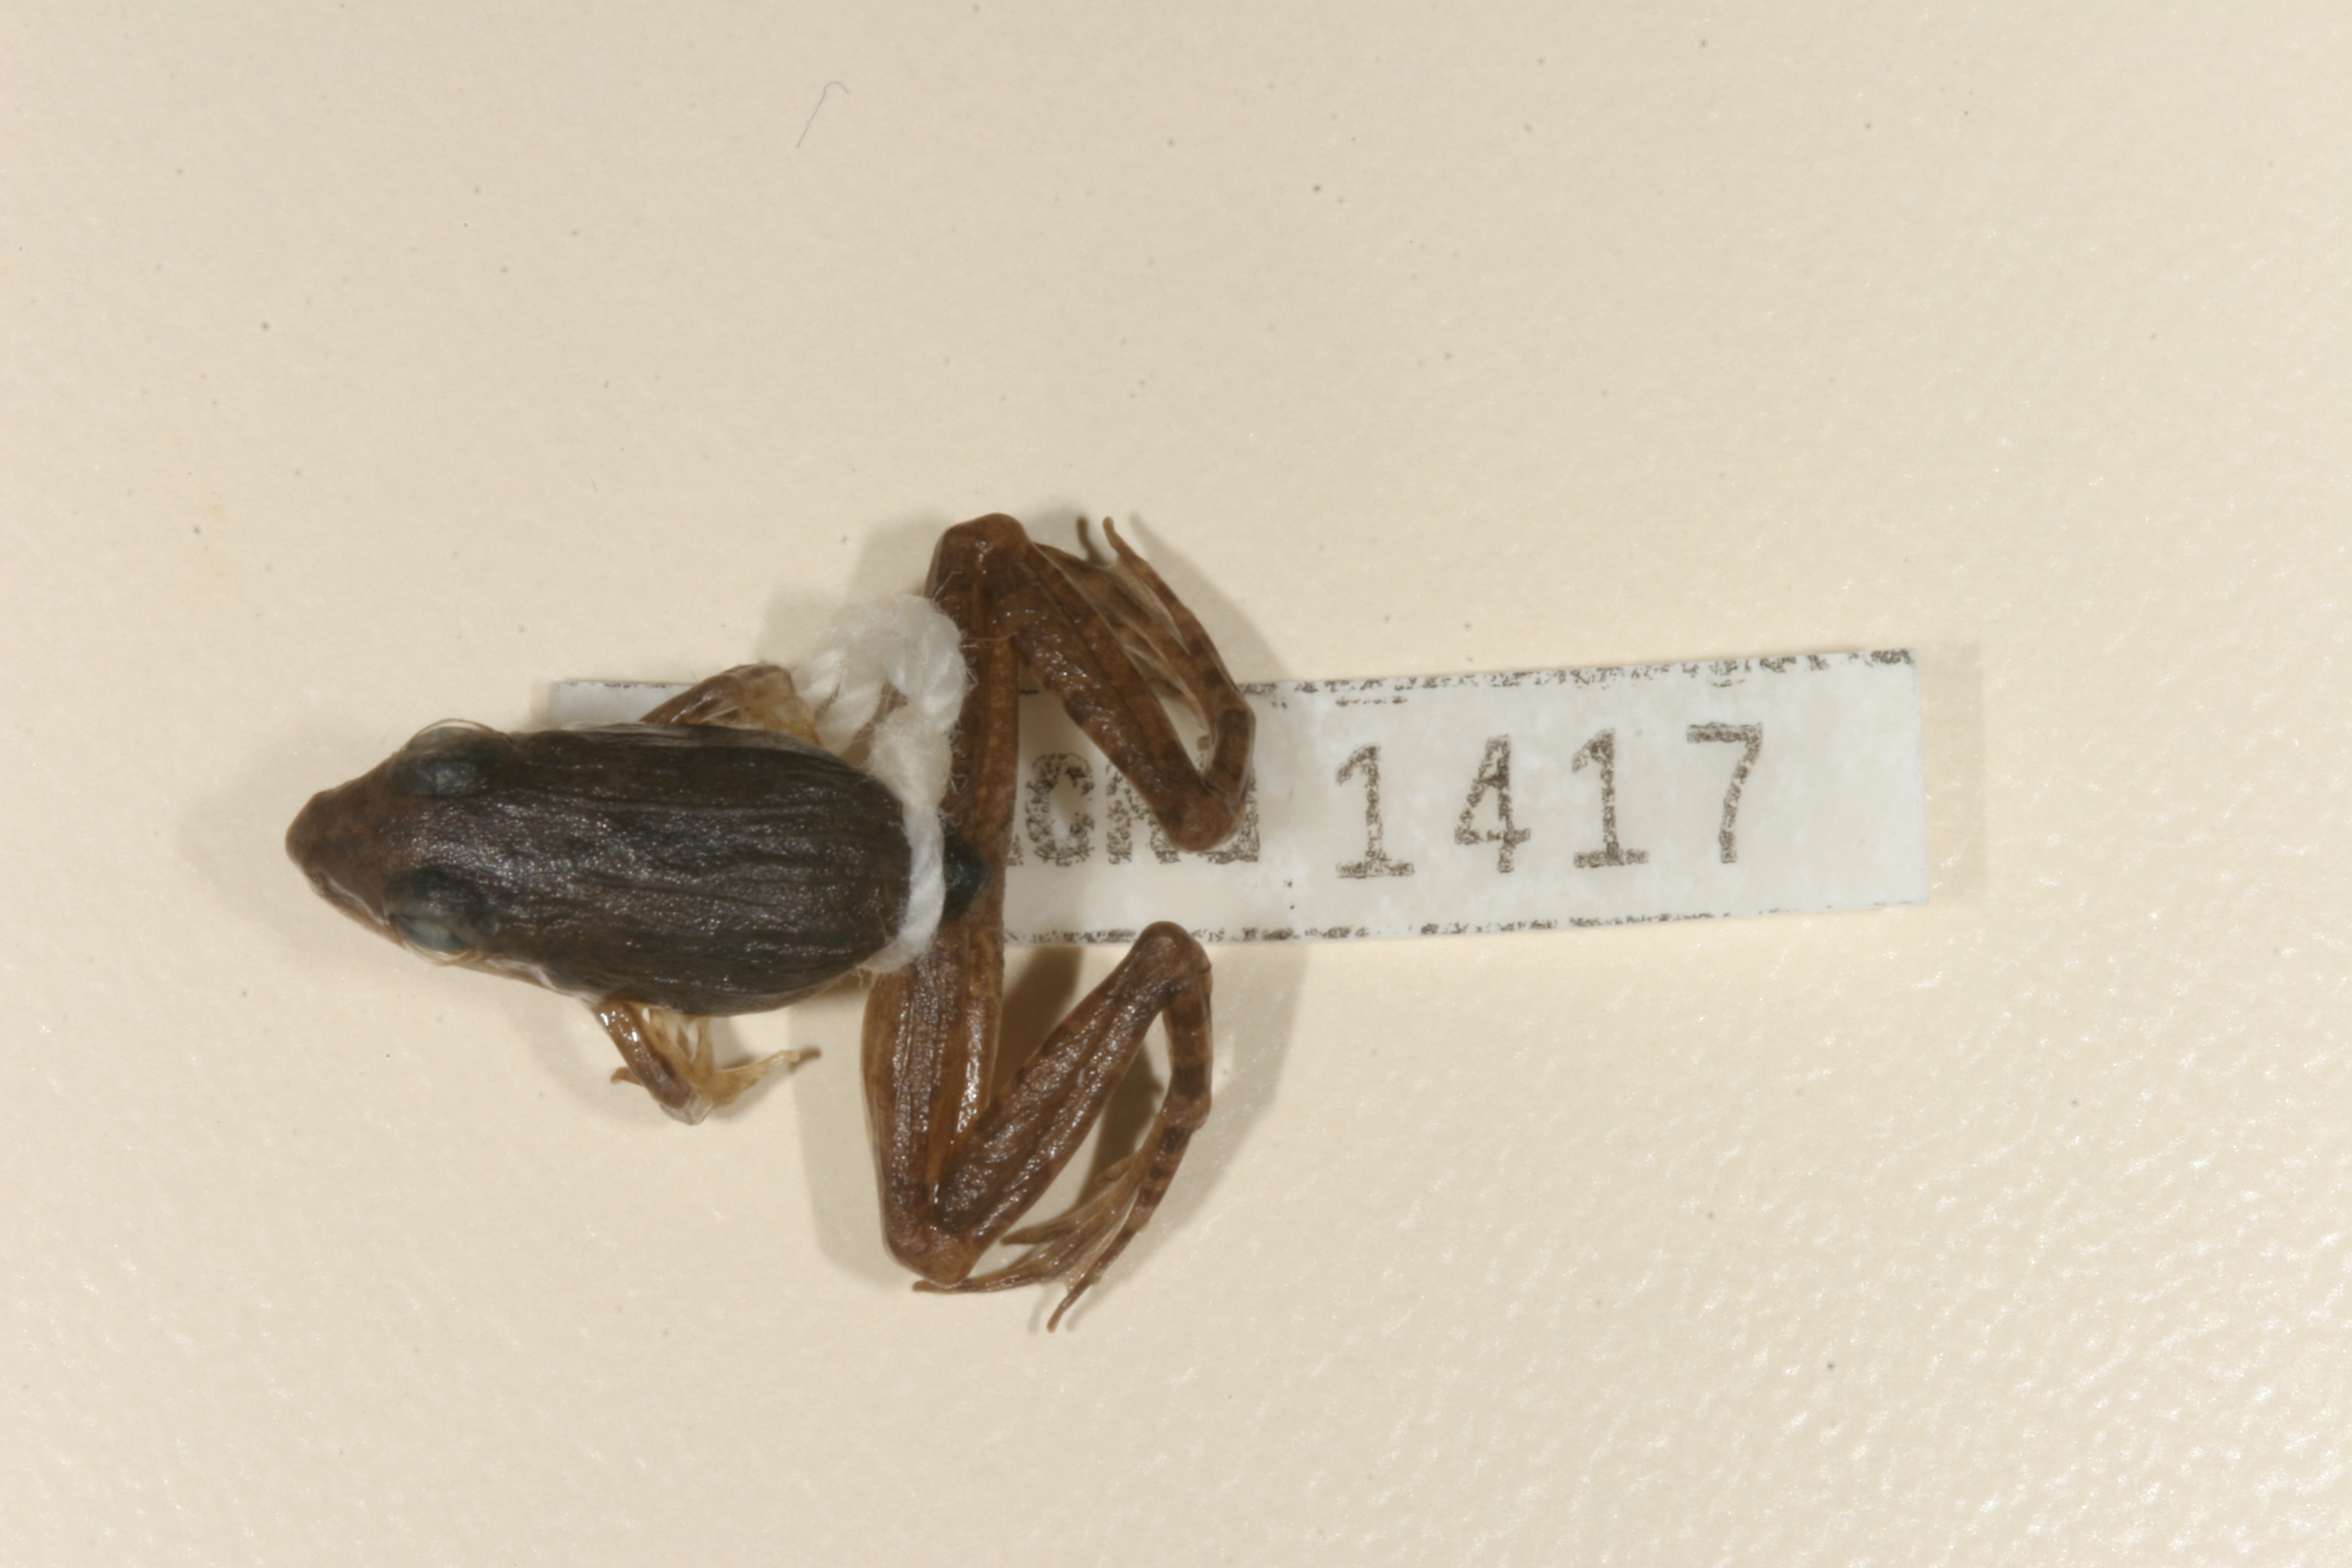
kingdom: Animalia
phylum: Chordata
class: Amphibia
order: Anura
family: Ptychadenidae
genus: Ptychadena
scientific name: Ptychadena anchietae
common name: Anchieta's ridged frog
